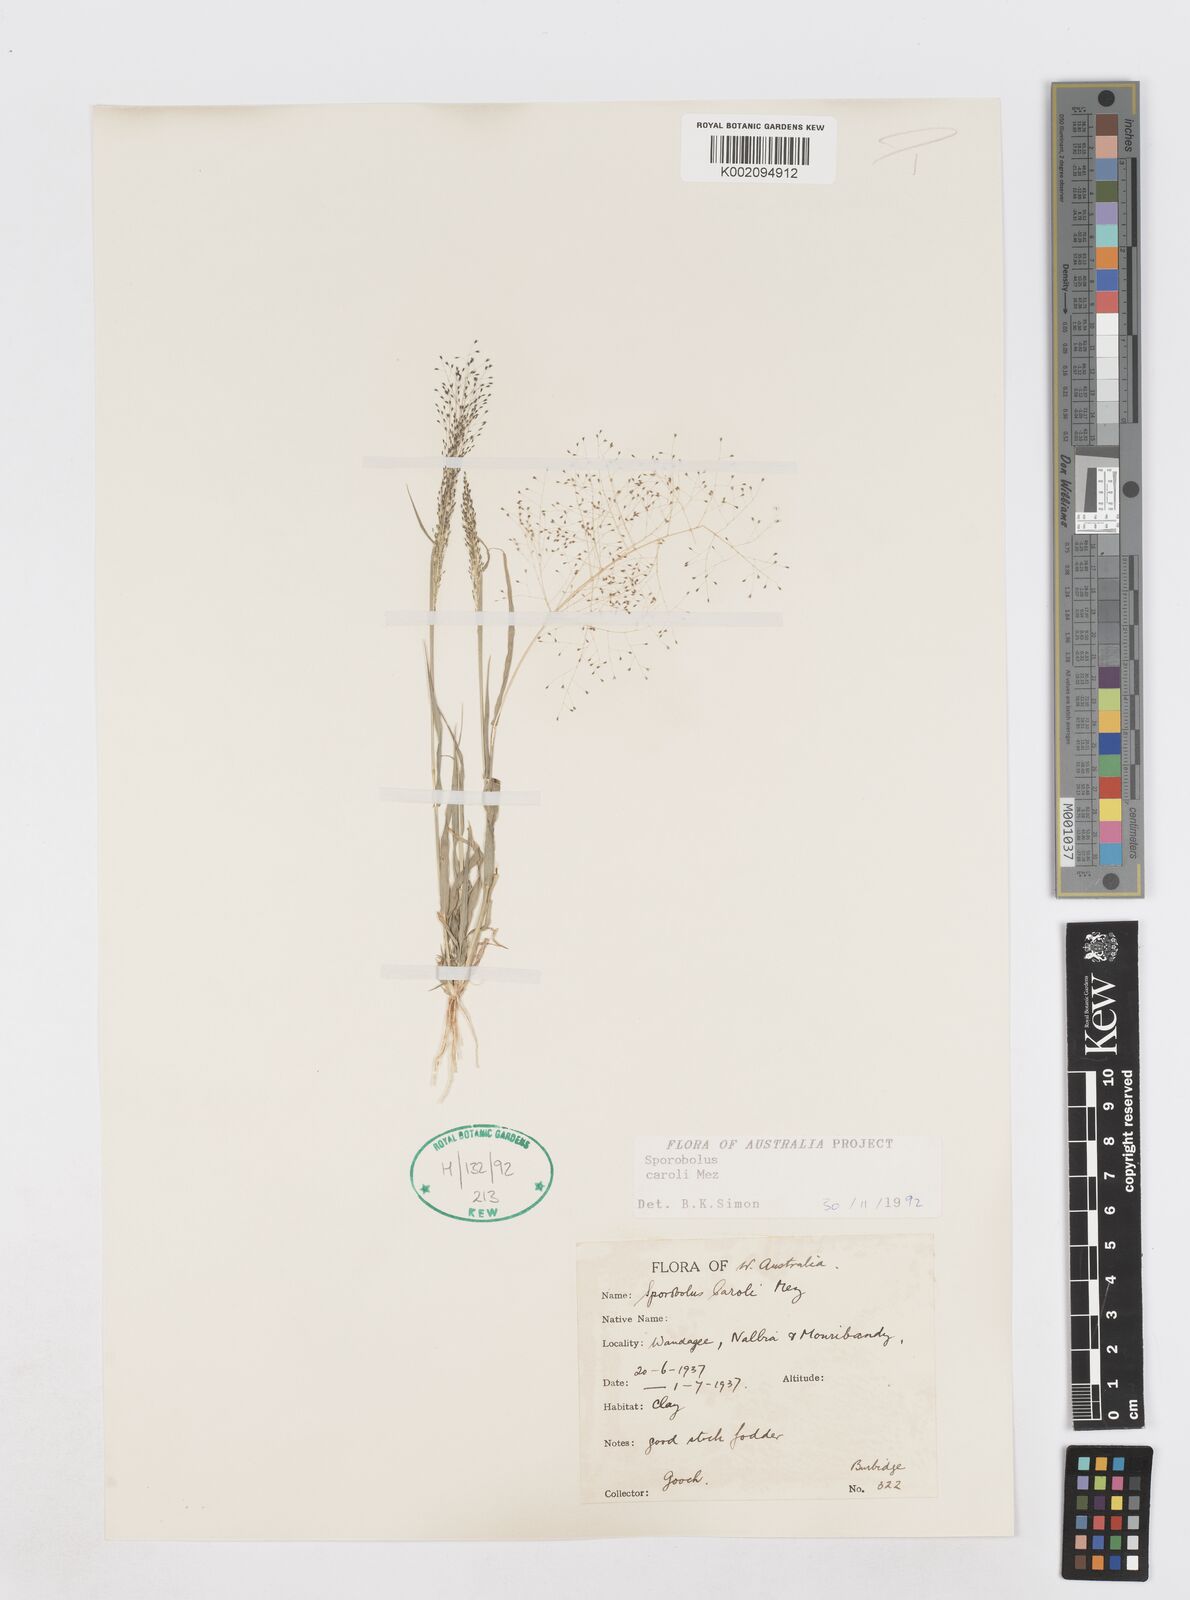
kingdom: Plantae
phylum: Tracheophyta
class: Liliopsida
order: Poales
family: Poaceae
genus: Sporobolus
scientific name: Sporobolus caroli
